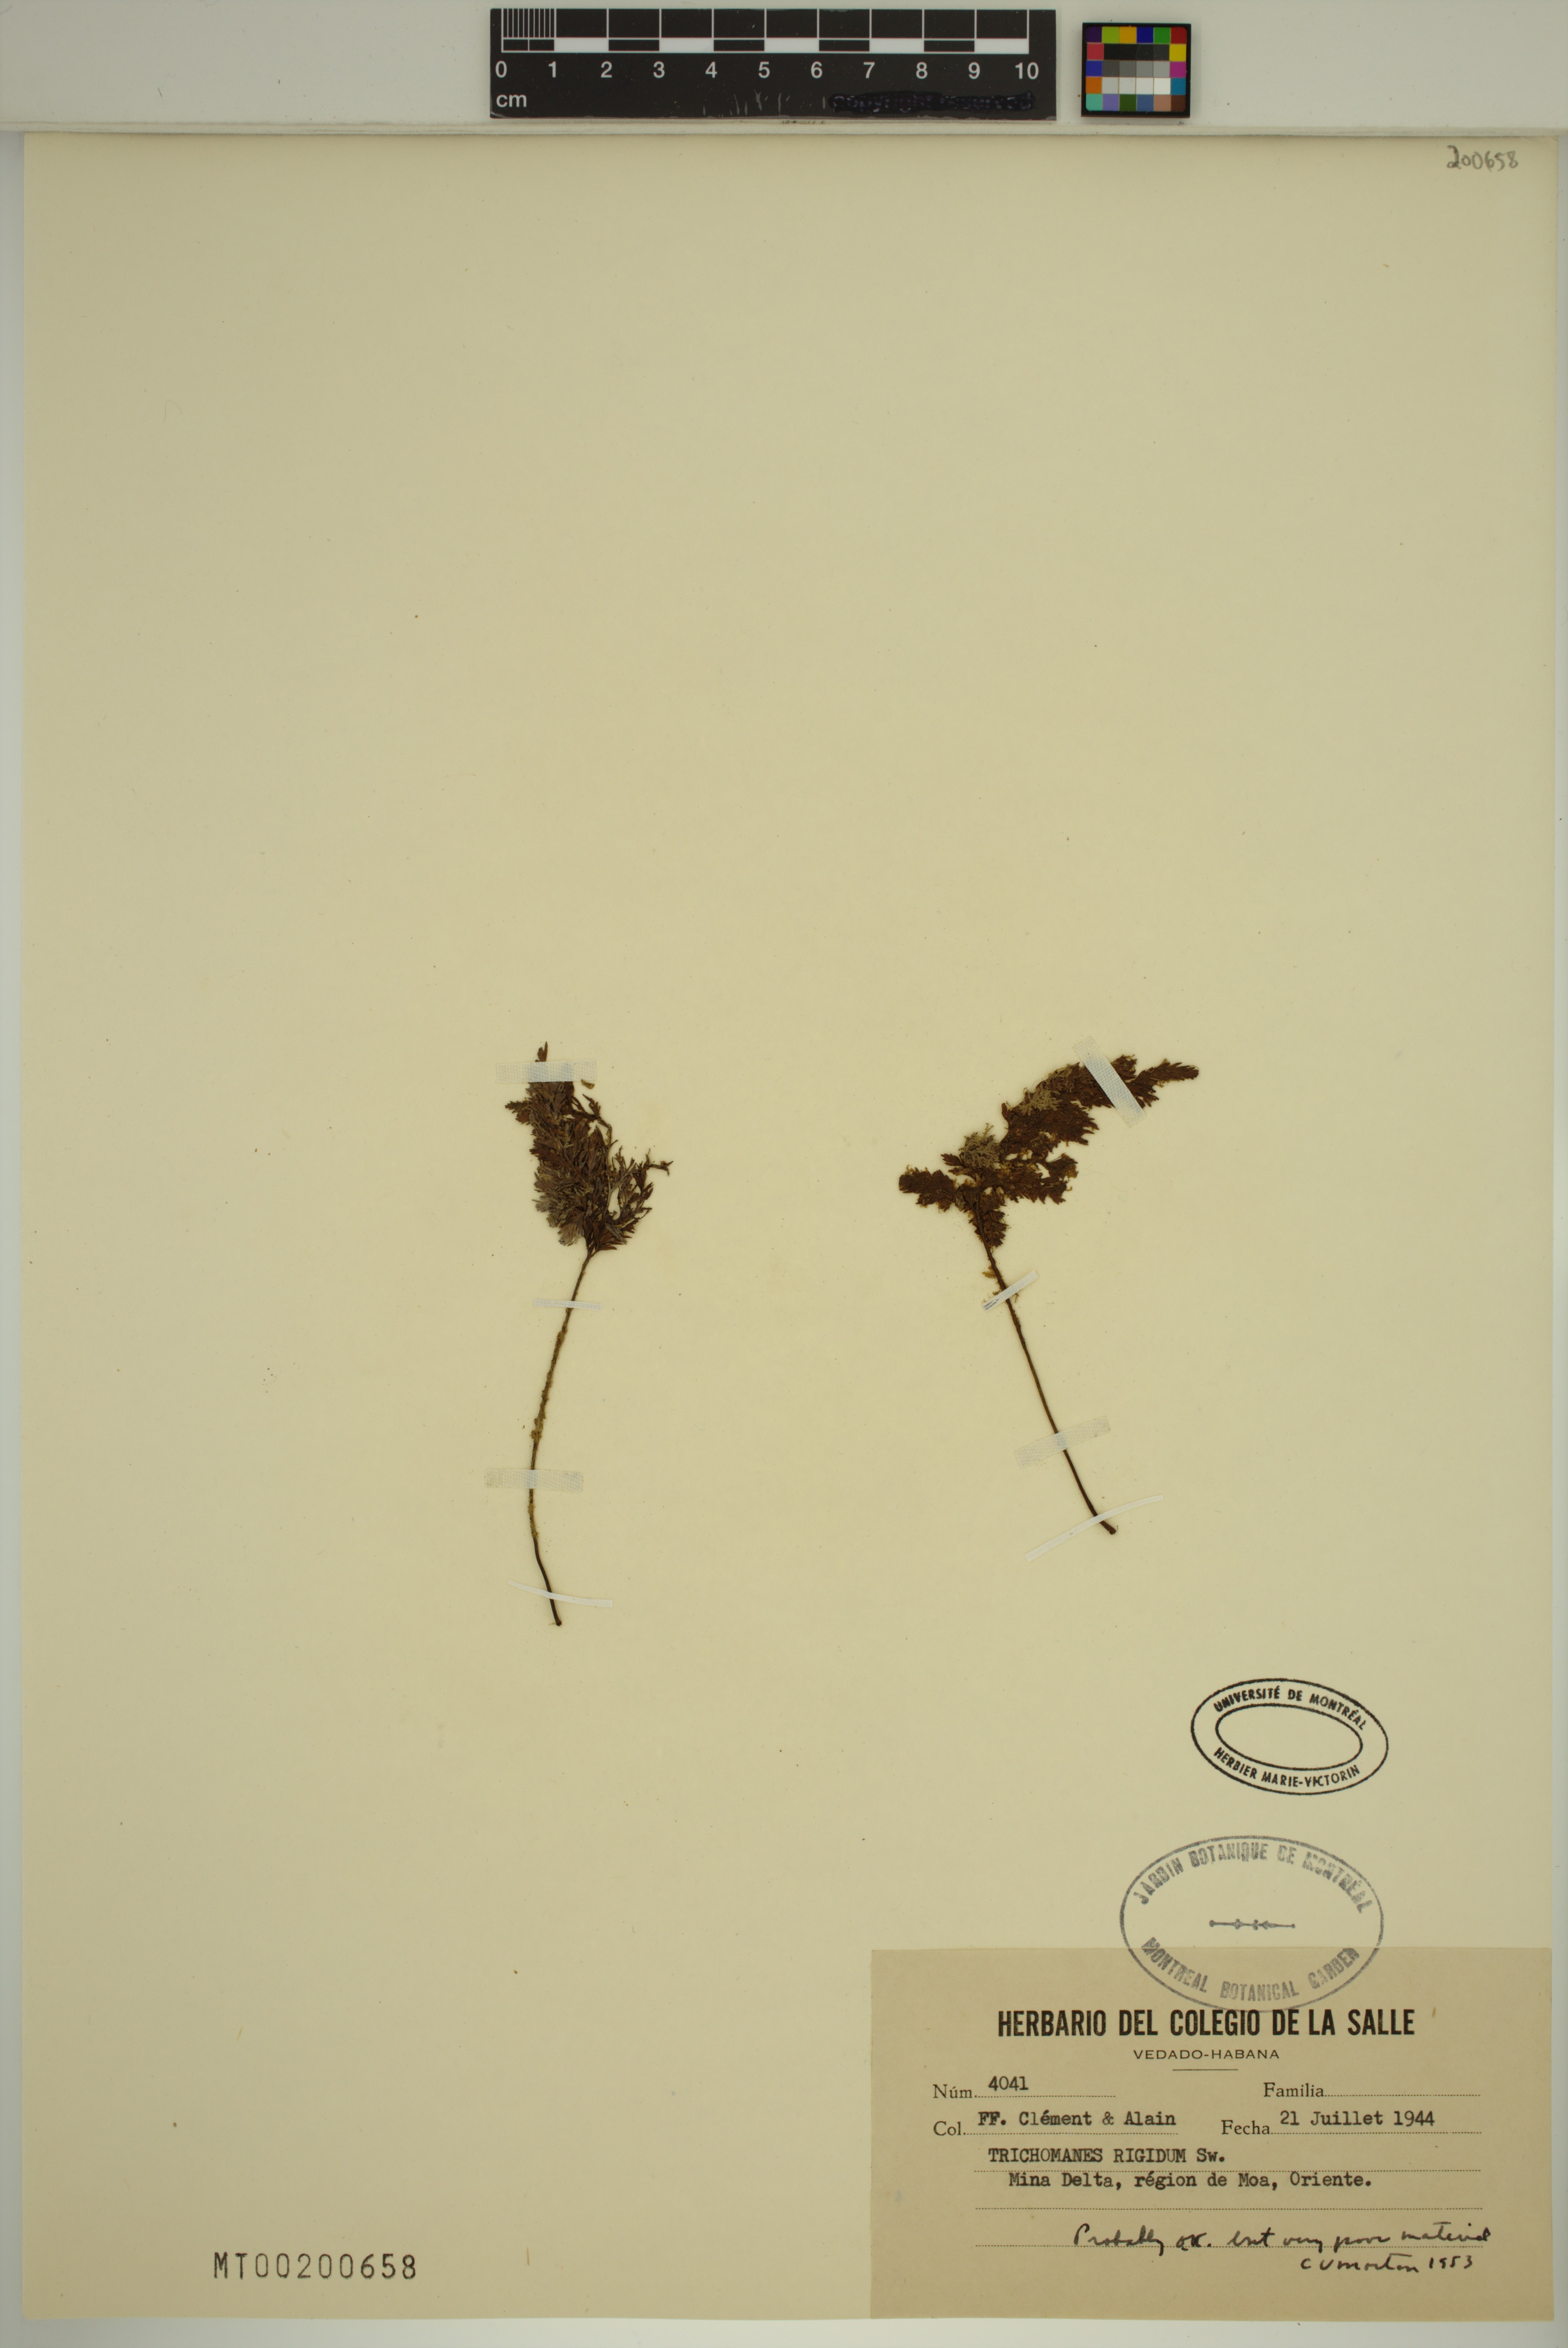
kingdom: Plantae
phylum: Tracheophyta
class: Polypodiopsida
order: Hymenophyllales
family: Hymenophyllaceae
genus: Abrodictyum
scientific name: Abrodictyum rigidum
